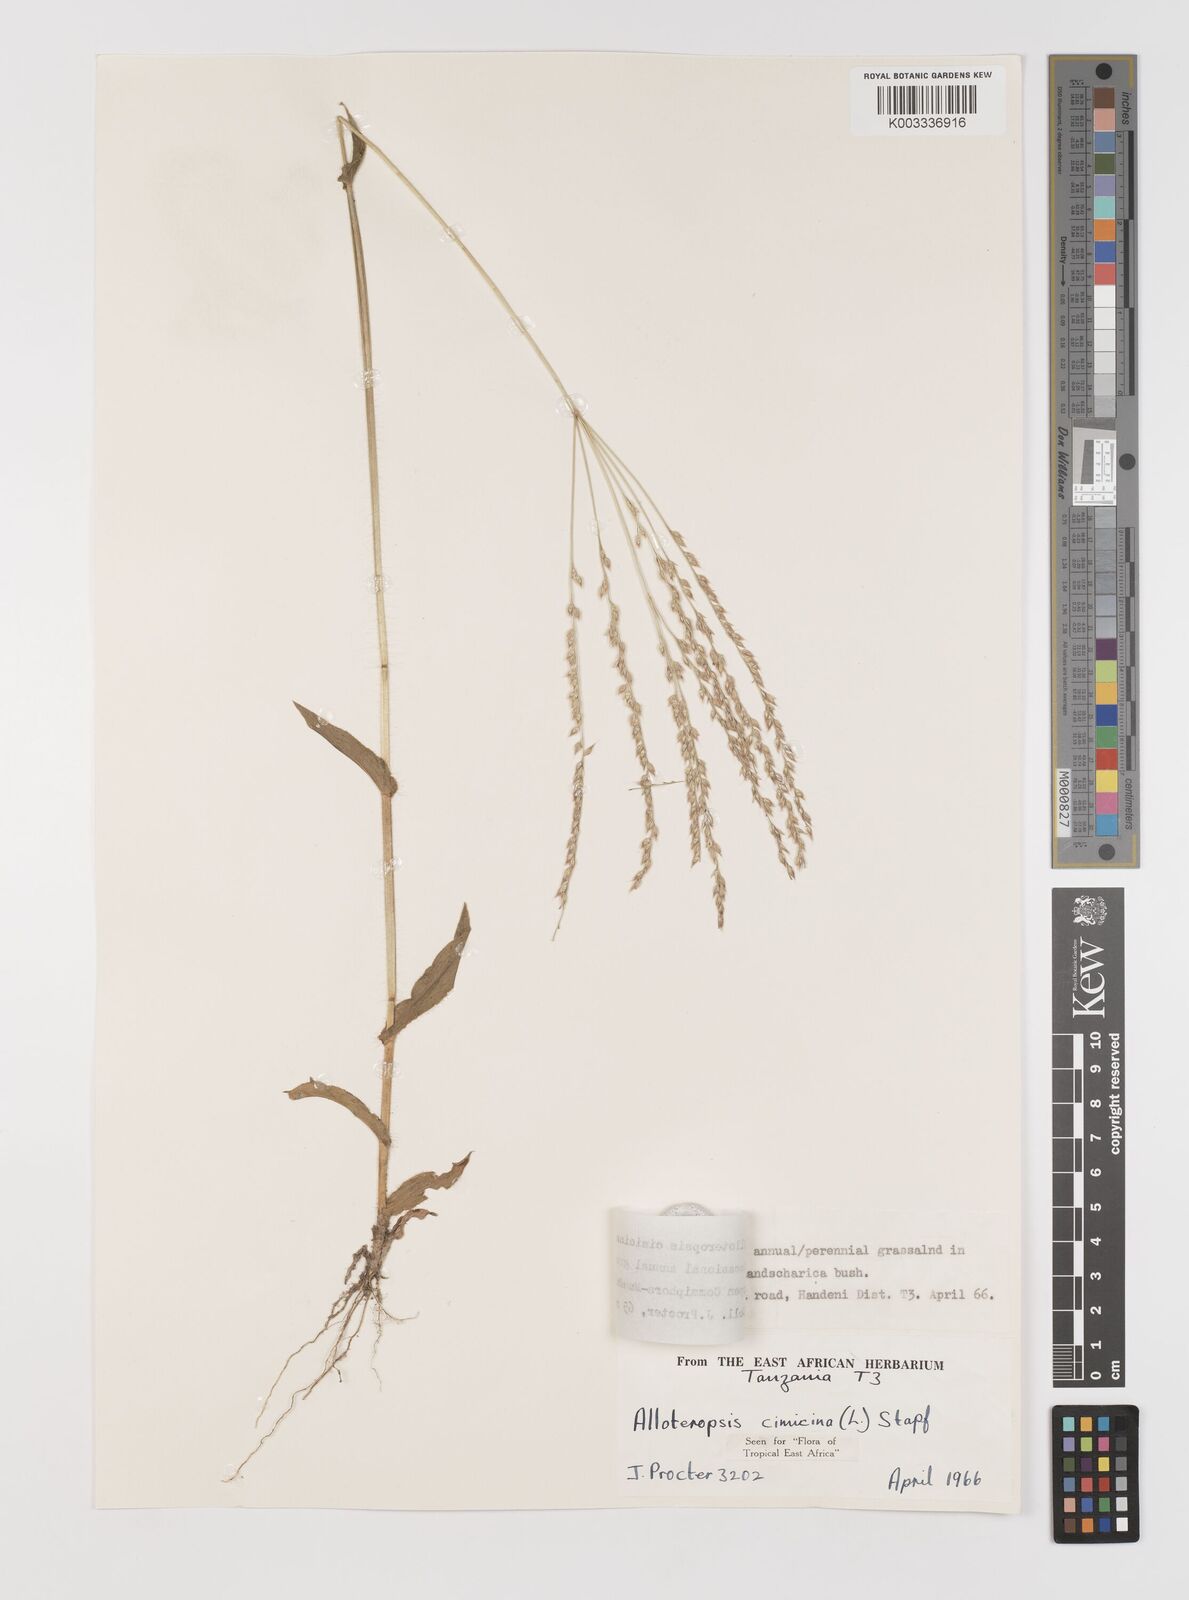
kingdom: Plantae
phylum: Tracheophyta
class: Liliopsida
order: Poales
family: Poaceae
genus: Alloteropsis
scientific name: Alloteropsis cimicina
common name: Summergrass
